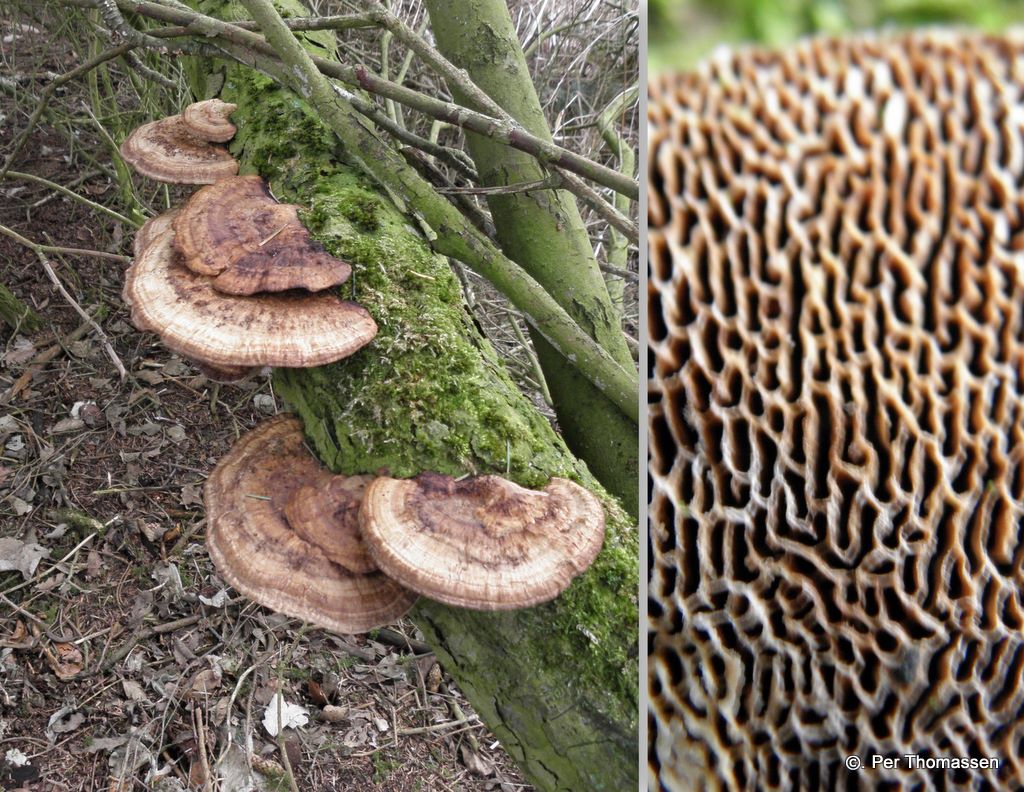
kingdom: Fungi
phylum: Basidiomycota
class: Agaricomycetes
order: Polyporales
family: Polyporaceae
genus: Daedaleopsis
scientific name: Daedaleopsis confragosa
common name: rødmende læderporesvamp
